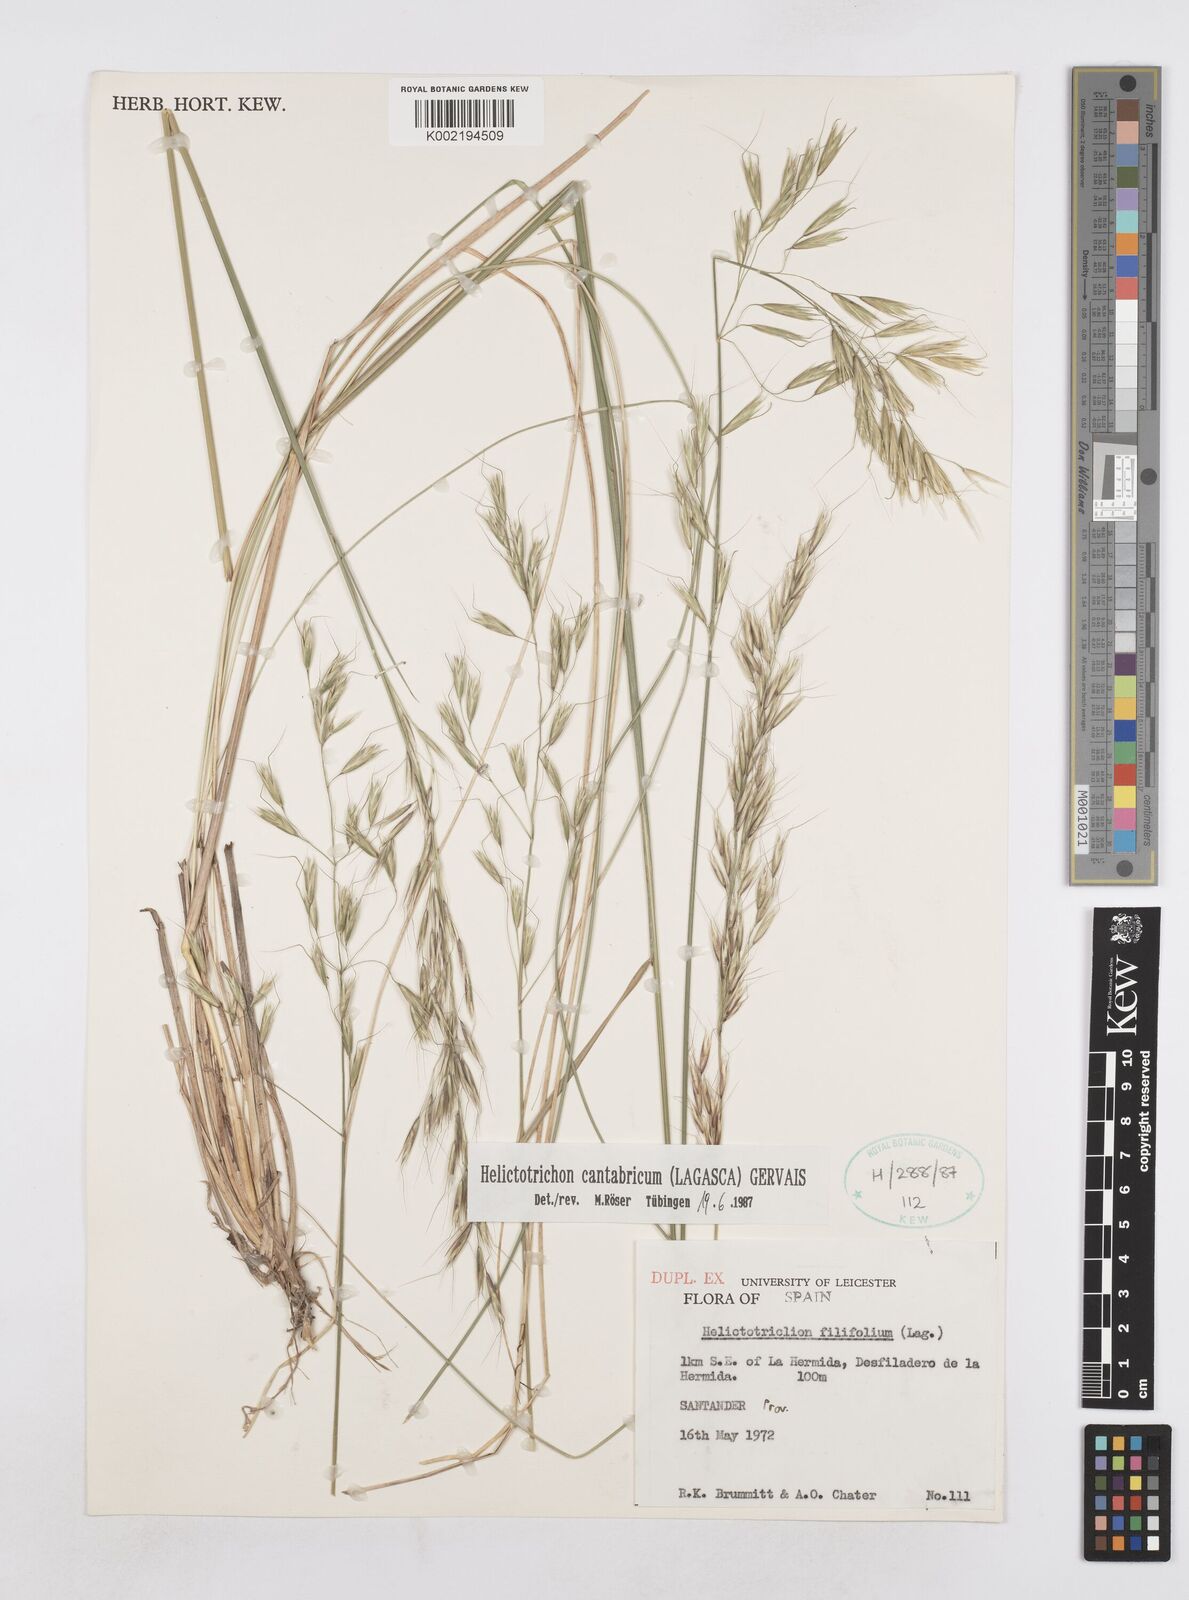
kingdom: Plantae
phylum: Tracheophyta
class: Liliopsida
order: Poales
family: Poaceae
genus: Helictotrichon
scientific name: Helictotrichon cantabricum
